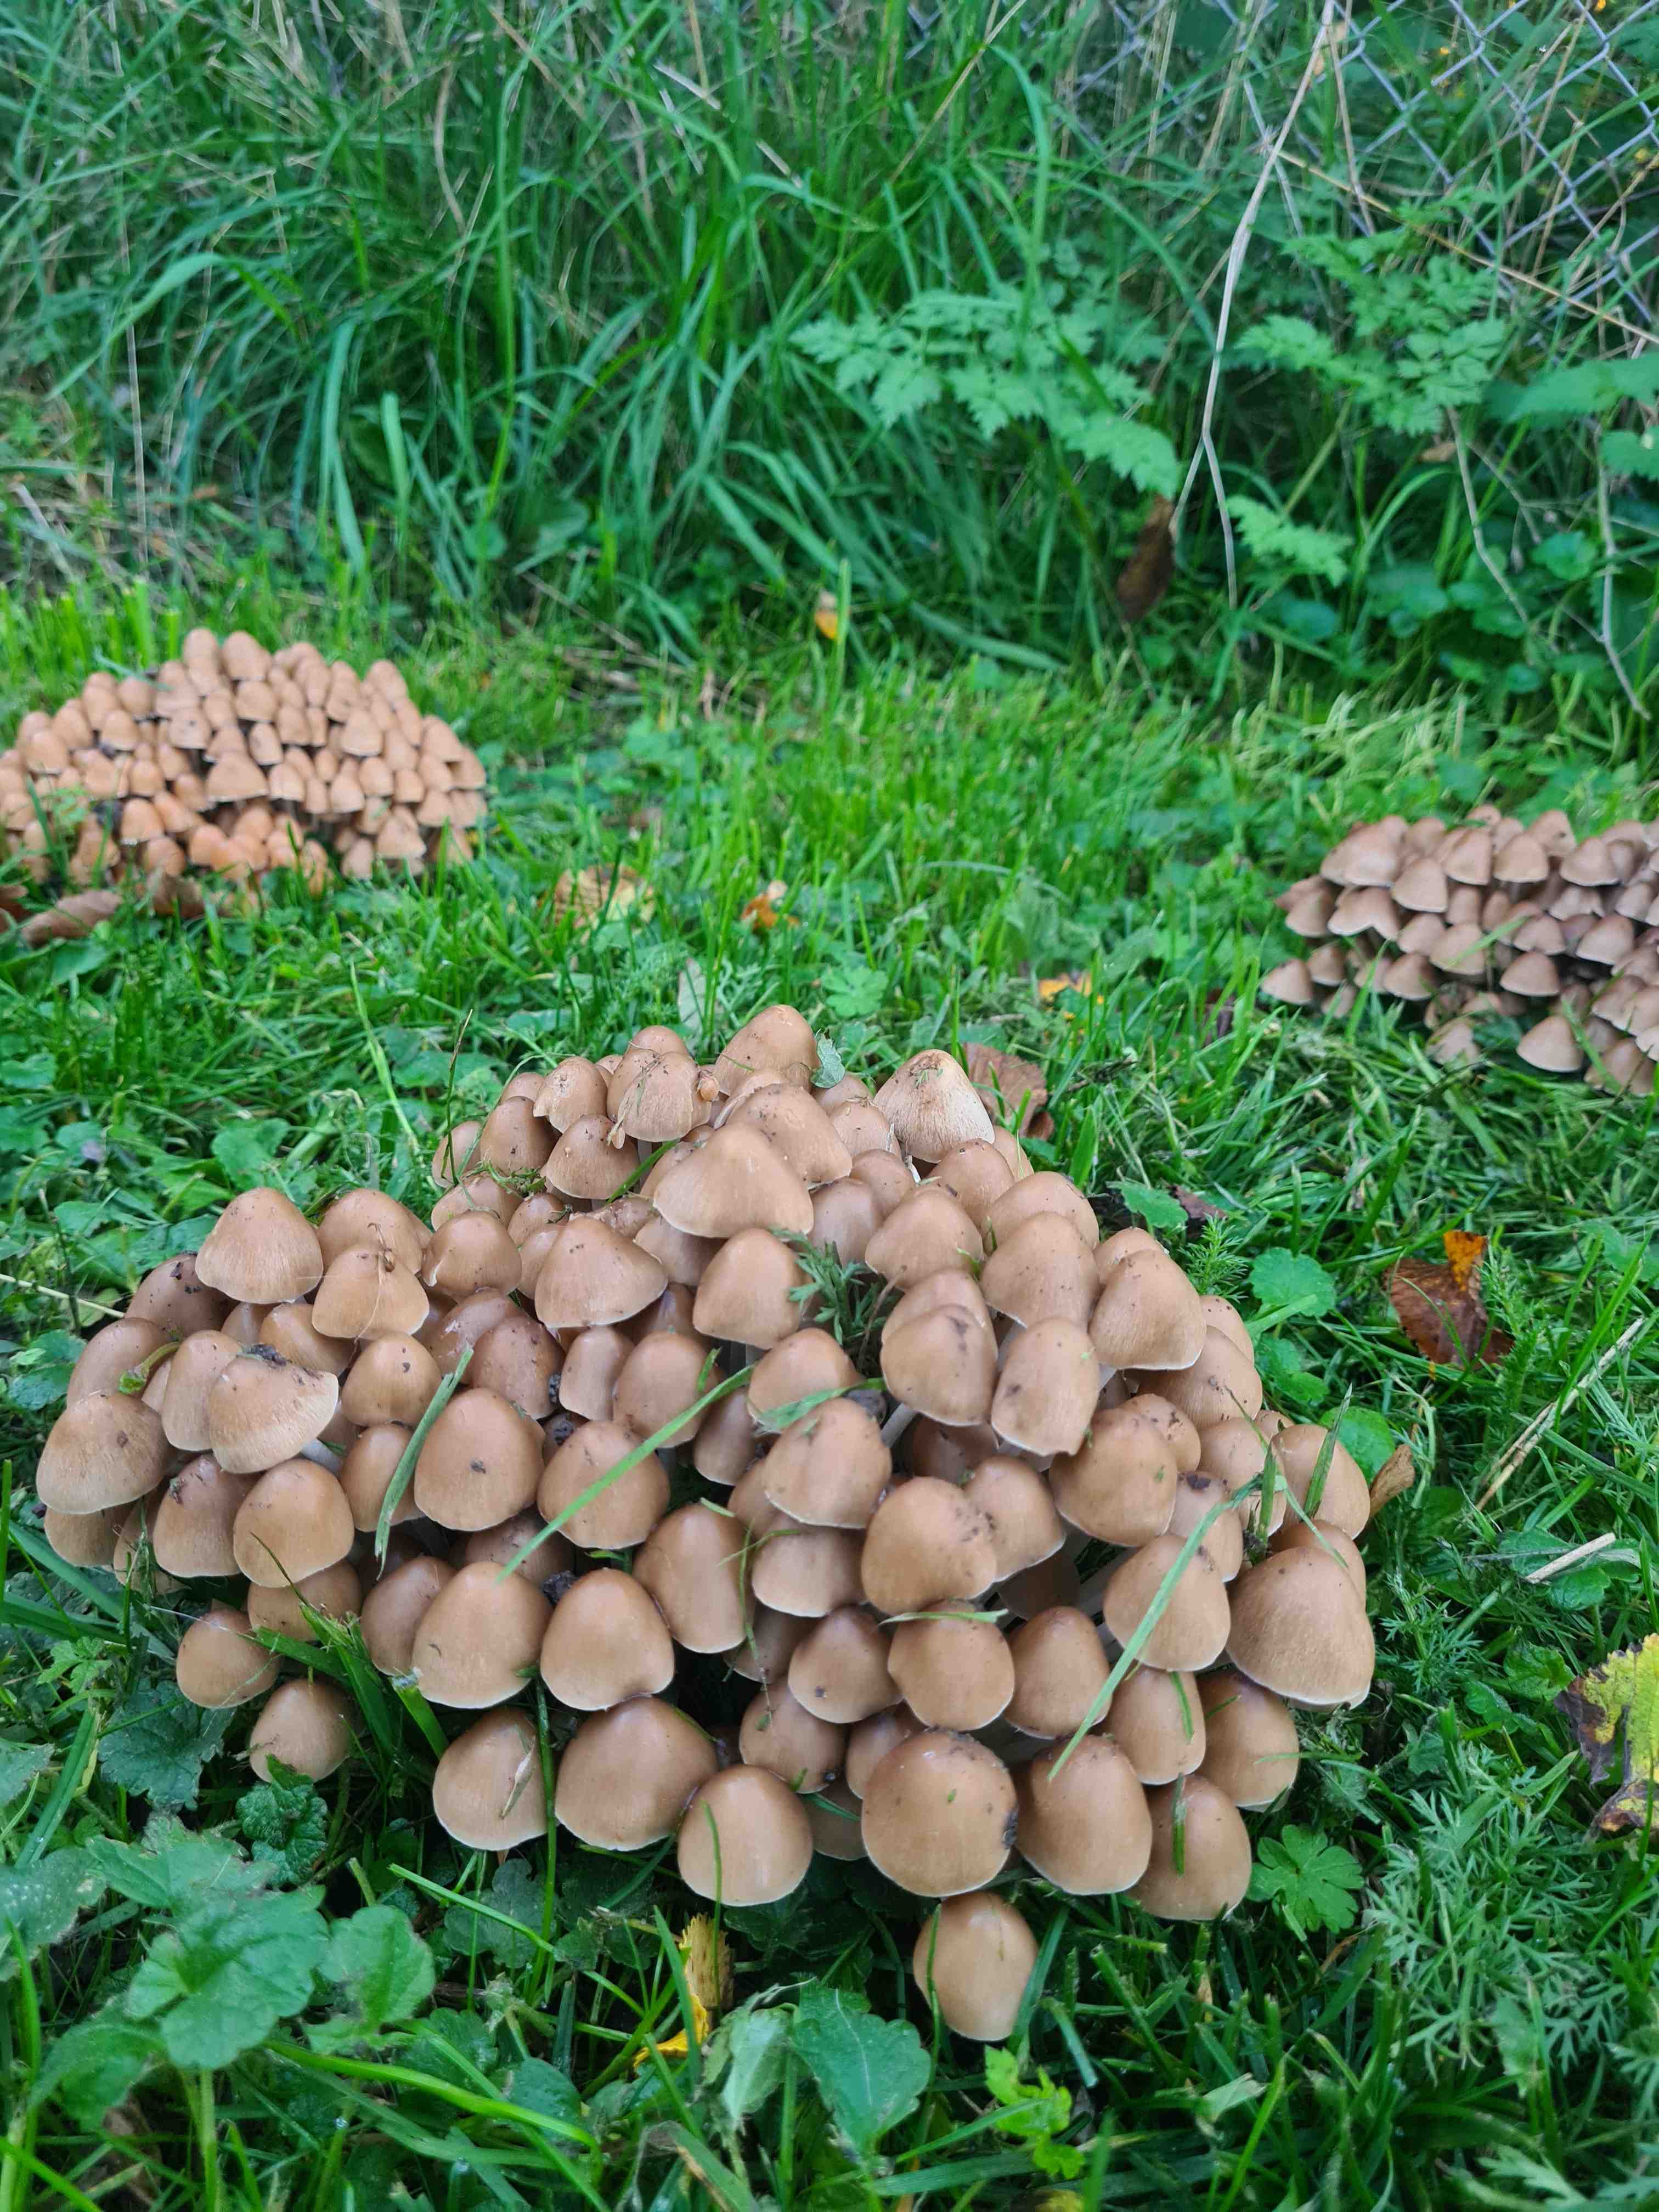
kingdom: Fungi
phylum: Basidiomycota
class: Agaricomycetes
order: Agaricales
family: Psathyrellaceae
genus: Britzelmayria
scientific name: Britzelmayria multipedata
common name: knippe-mørkhat
